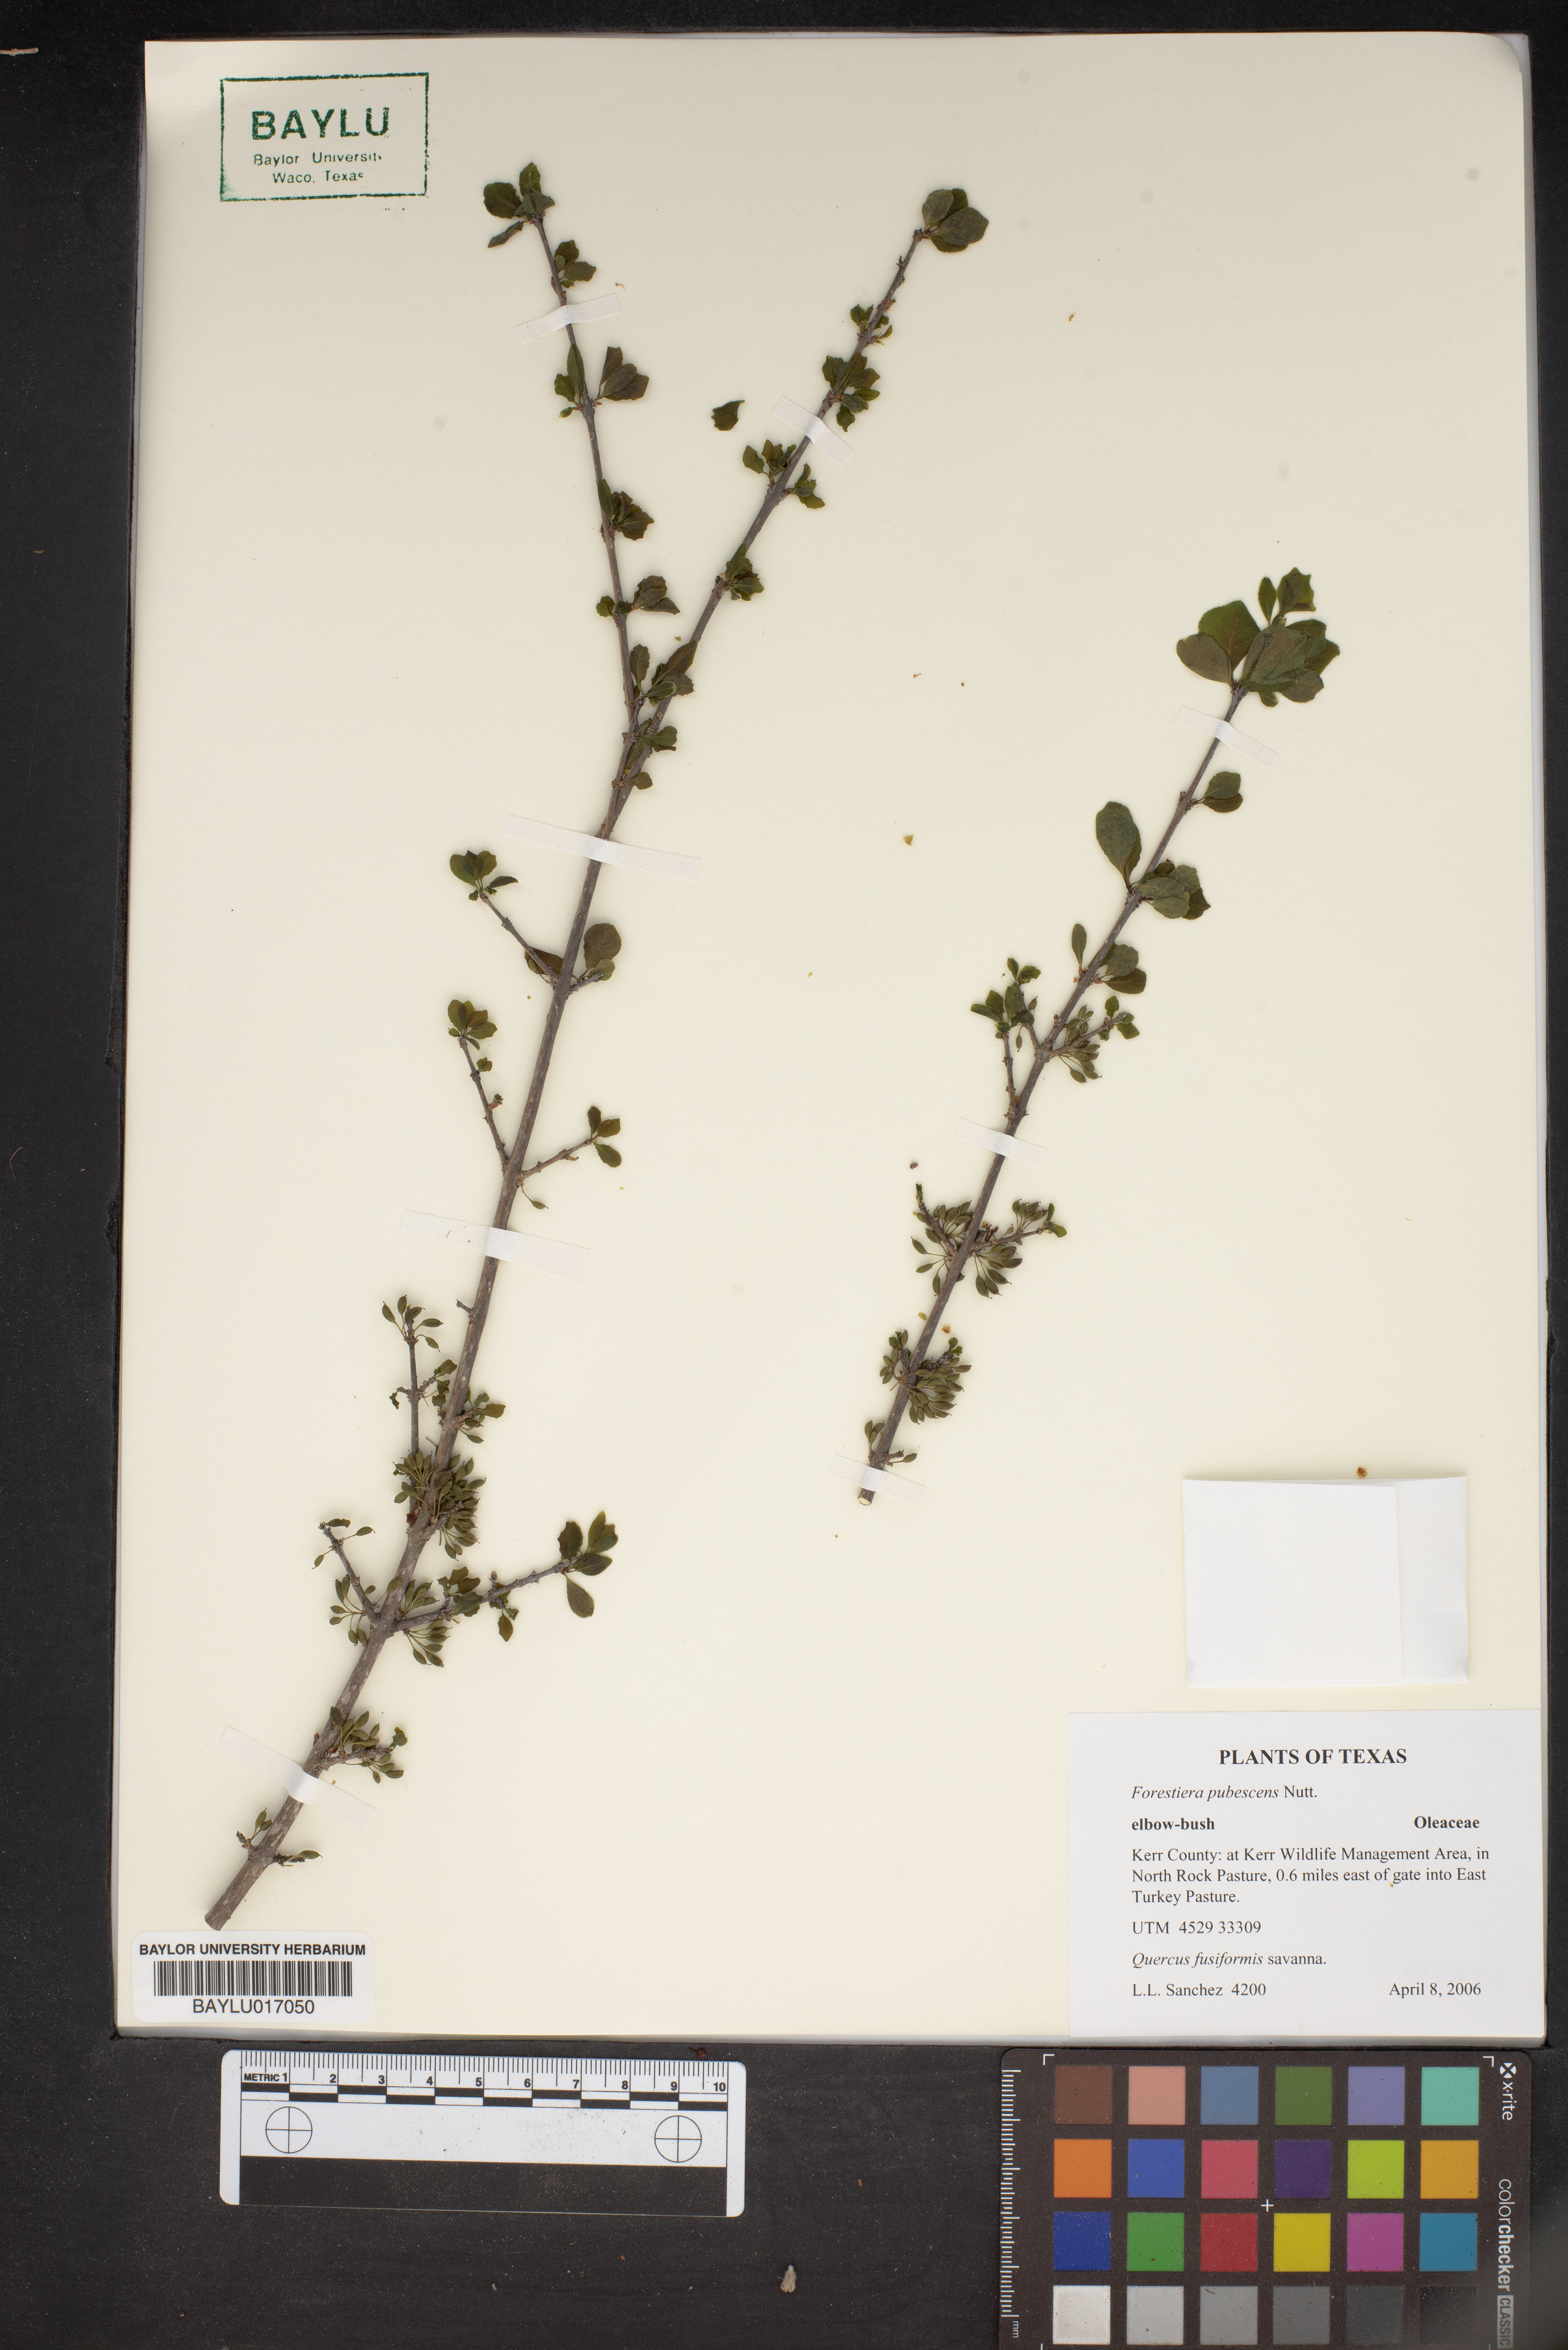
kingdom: Plantae
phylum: Tracheophyta
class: Magnoliopsida
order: Lamiales
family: Oleaceae
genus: Forestiera
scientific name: Forestiera pubescens
